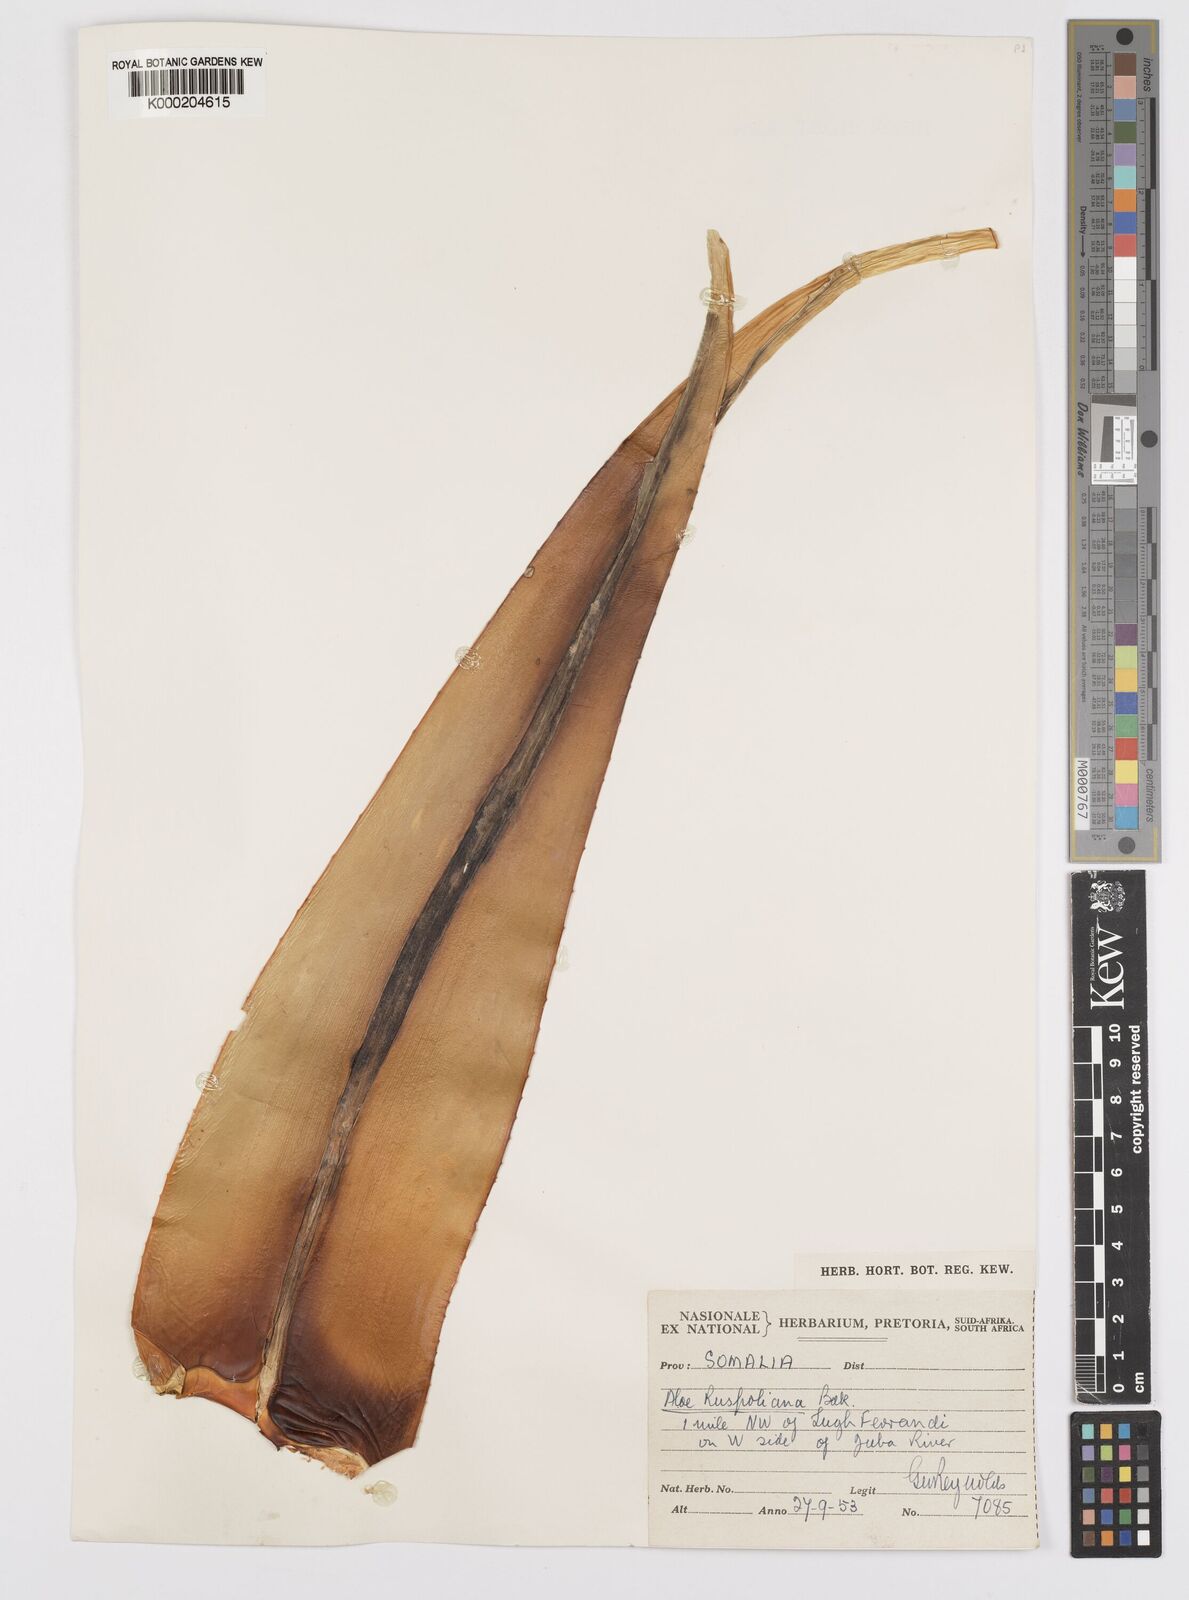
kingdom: Plantae
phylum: Tracheophyta
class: Liliopsida
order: Asparagales
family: Asphodelaceae
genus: Aloe
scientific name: Aloe ruspoliana
